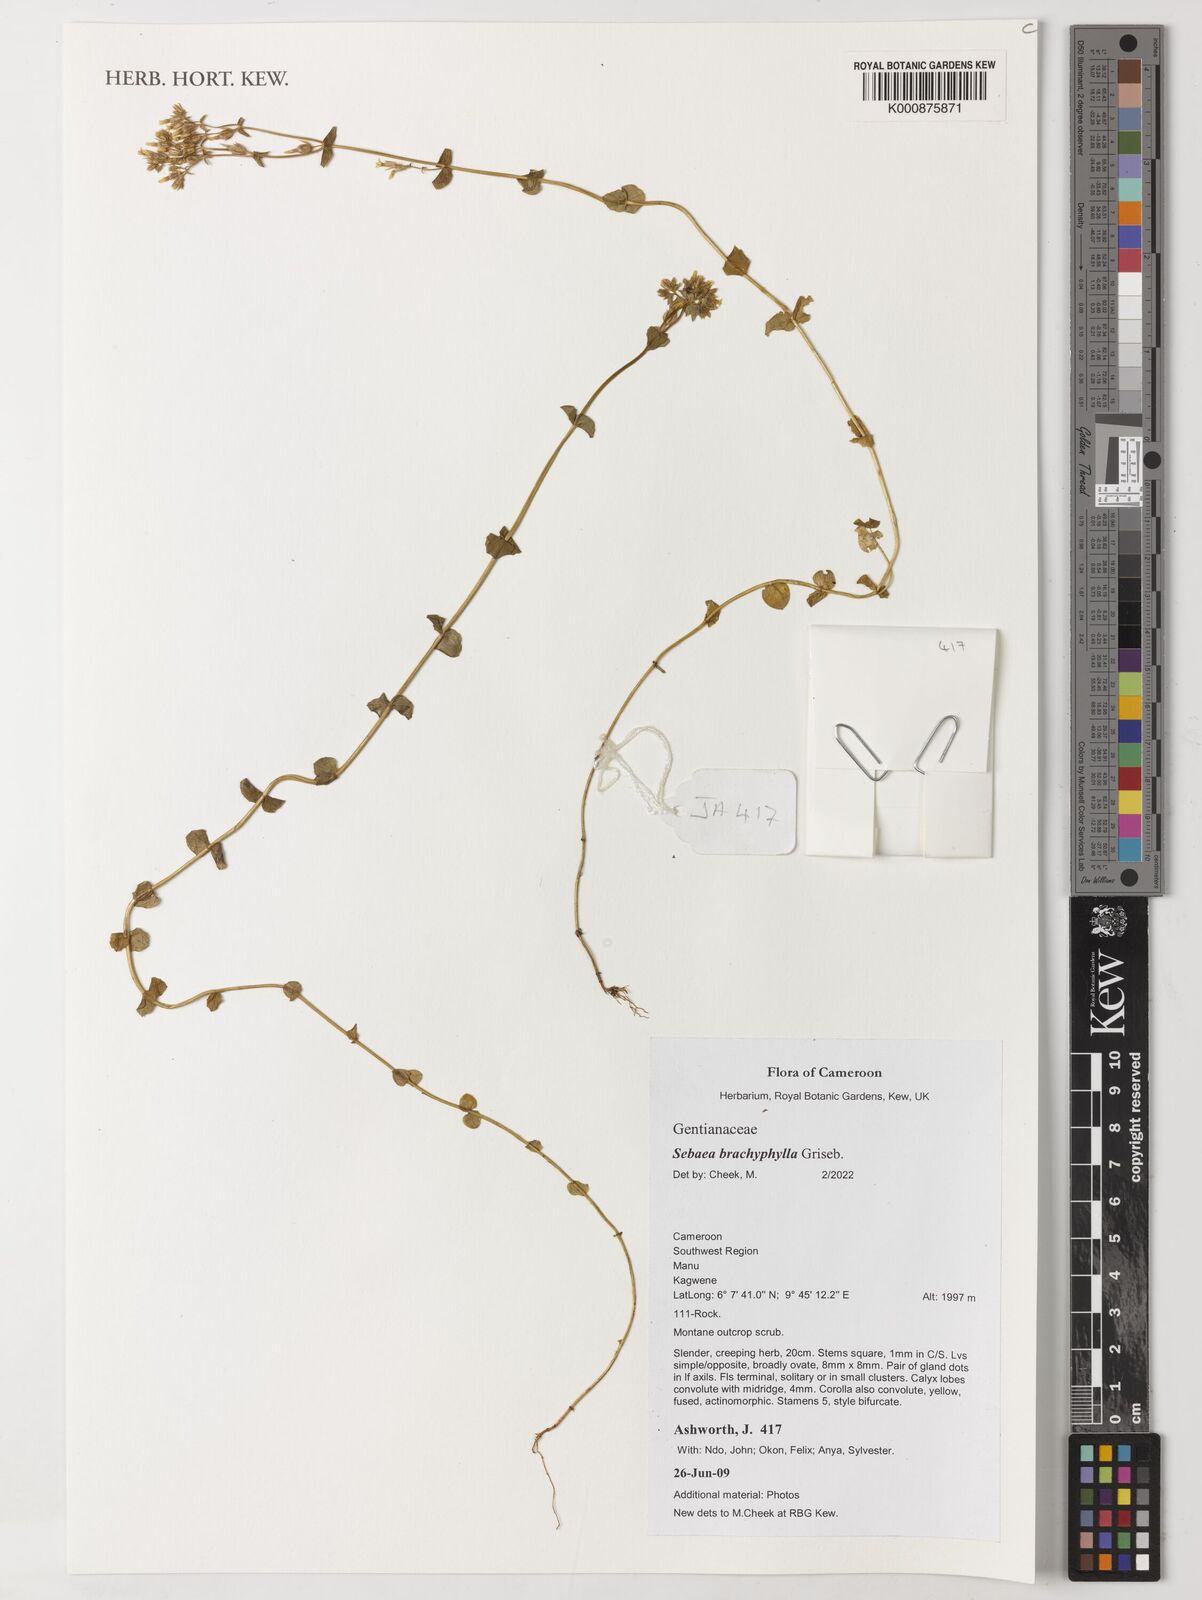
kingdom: Plantae
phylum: Tracheophyta
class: Magnoliopsida
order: Gentianales
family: Gentianaceae
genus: Sebaea
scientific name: Sebaea brachyphylla
